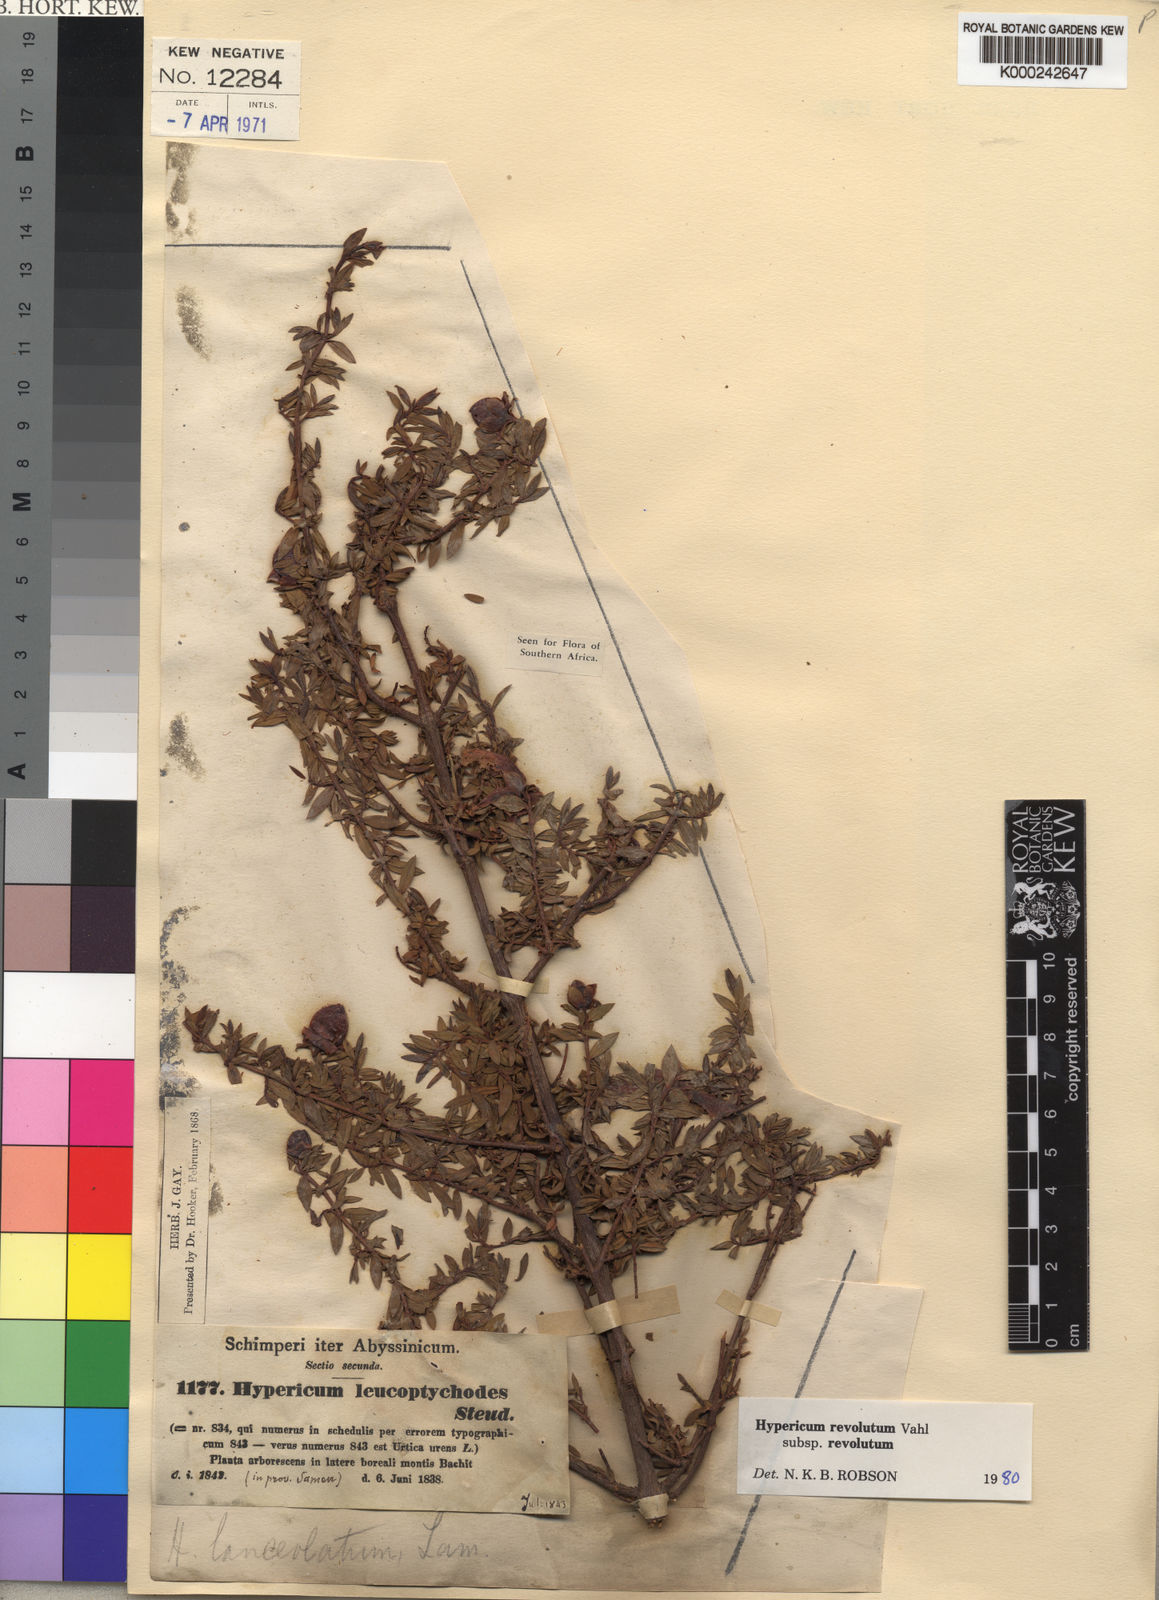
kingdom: Plantae
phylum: Tracheophyta
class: Magnoliopsida
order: Malpighiales
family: Hypericaceae
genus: Hypericum
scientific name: Hypericum revolutum
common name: Curry bush
